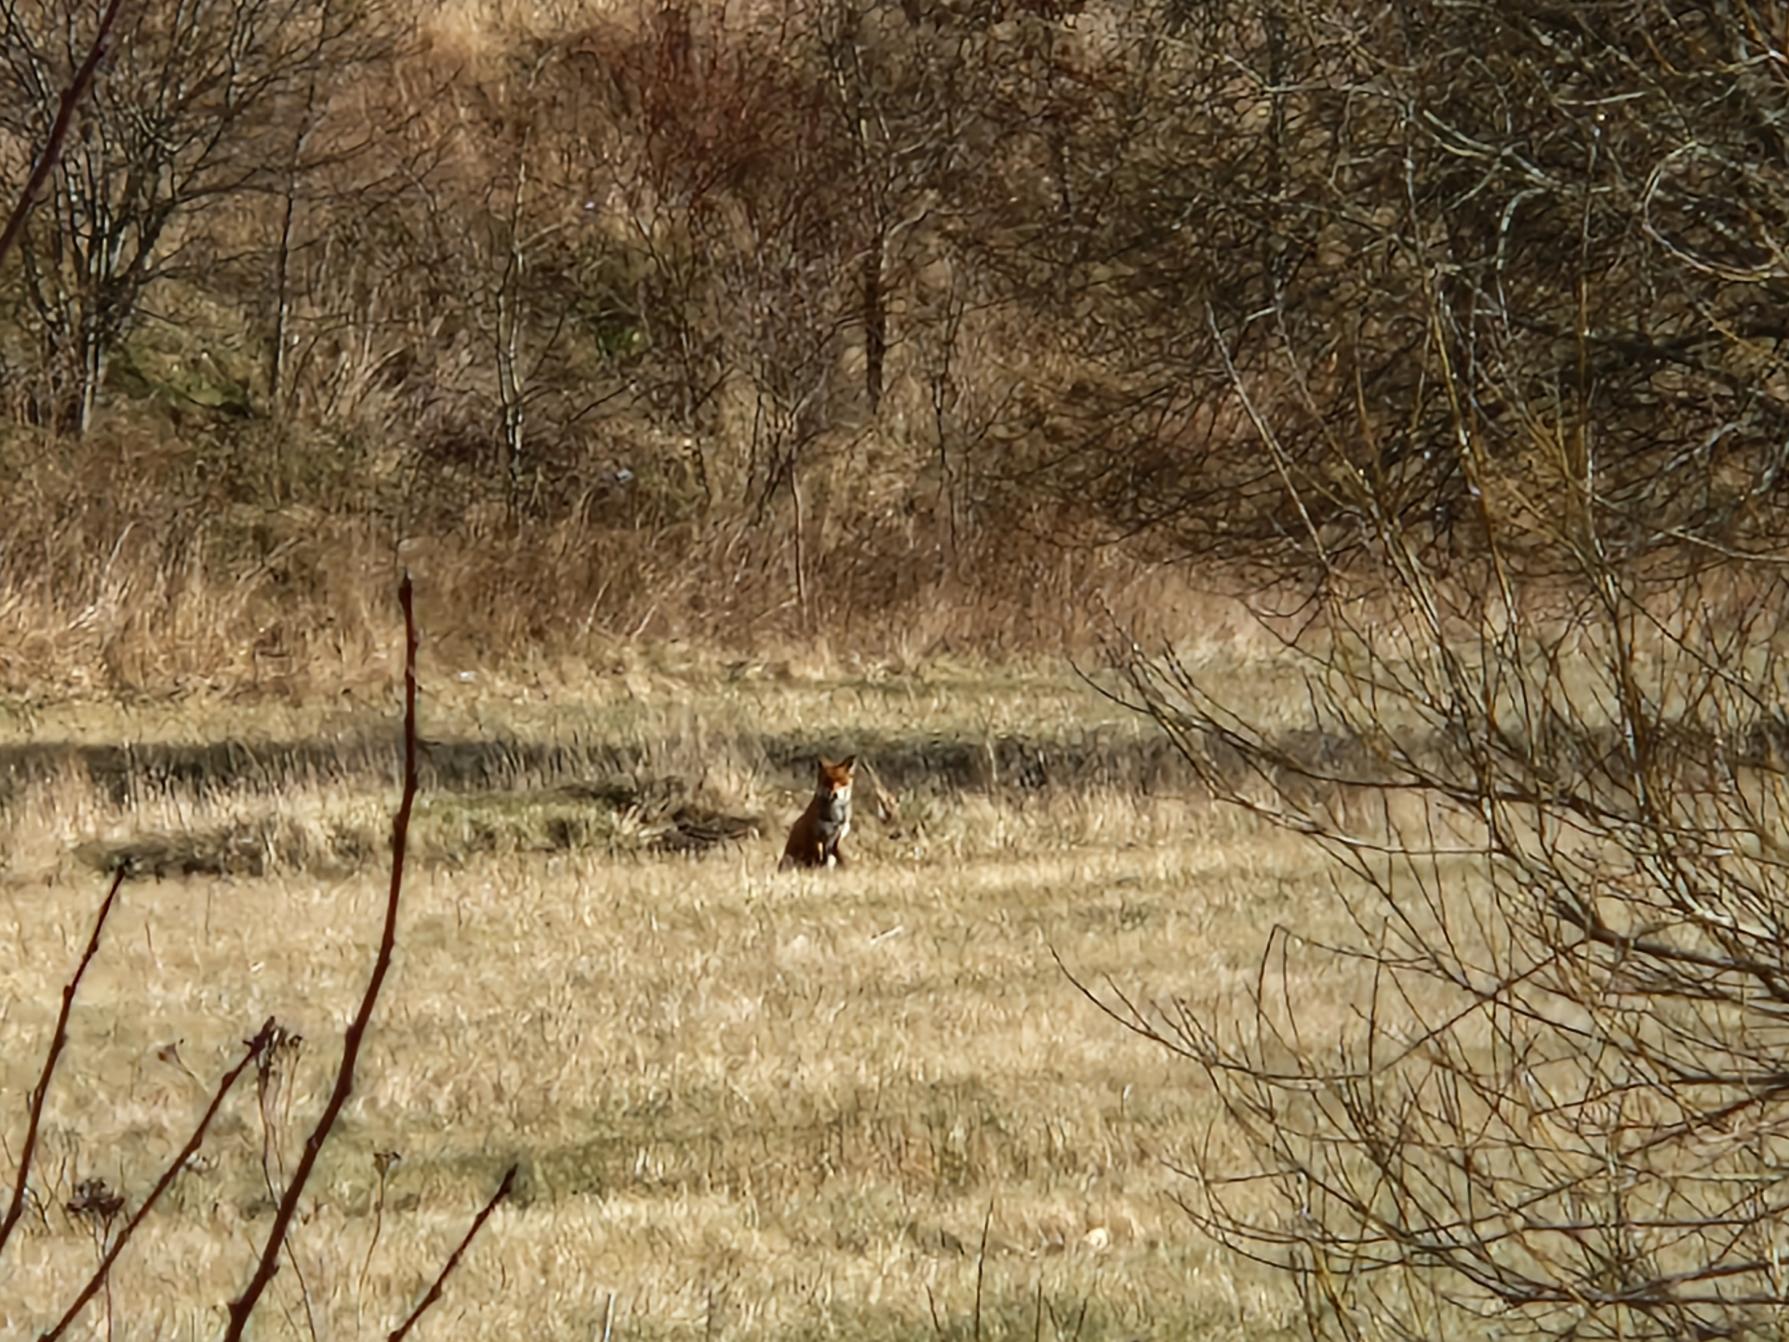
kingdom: Animalia
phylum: Chordata
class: Mammalia
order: Carnivora
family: Canidae
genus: Vulpes
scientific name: Vulpes vulpes
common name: Ræv
